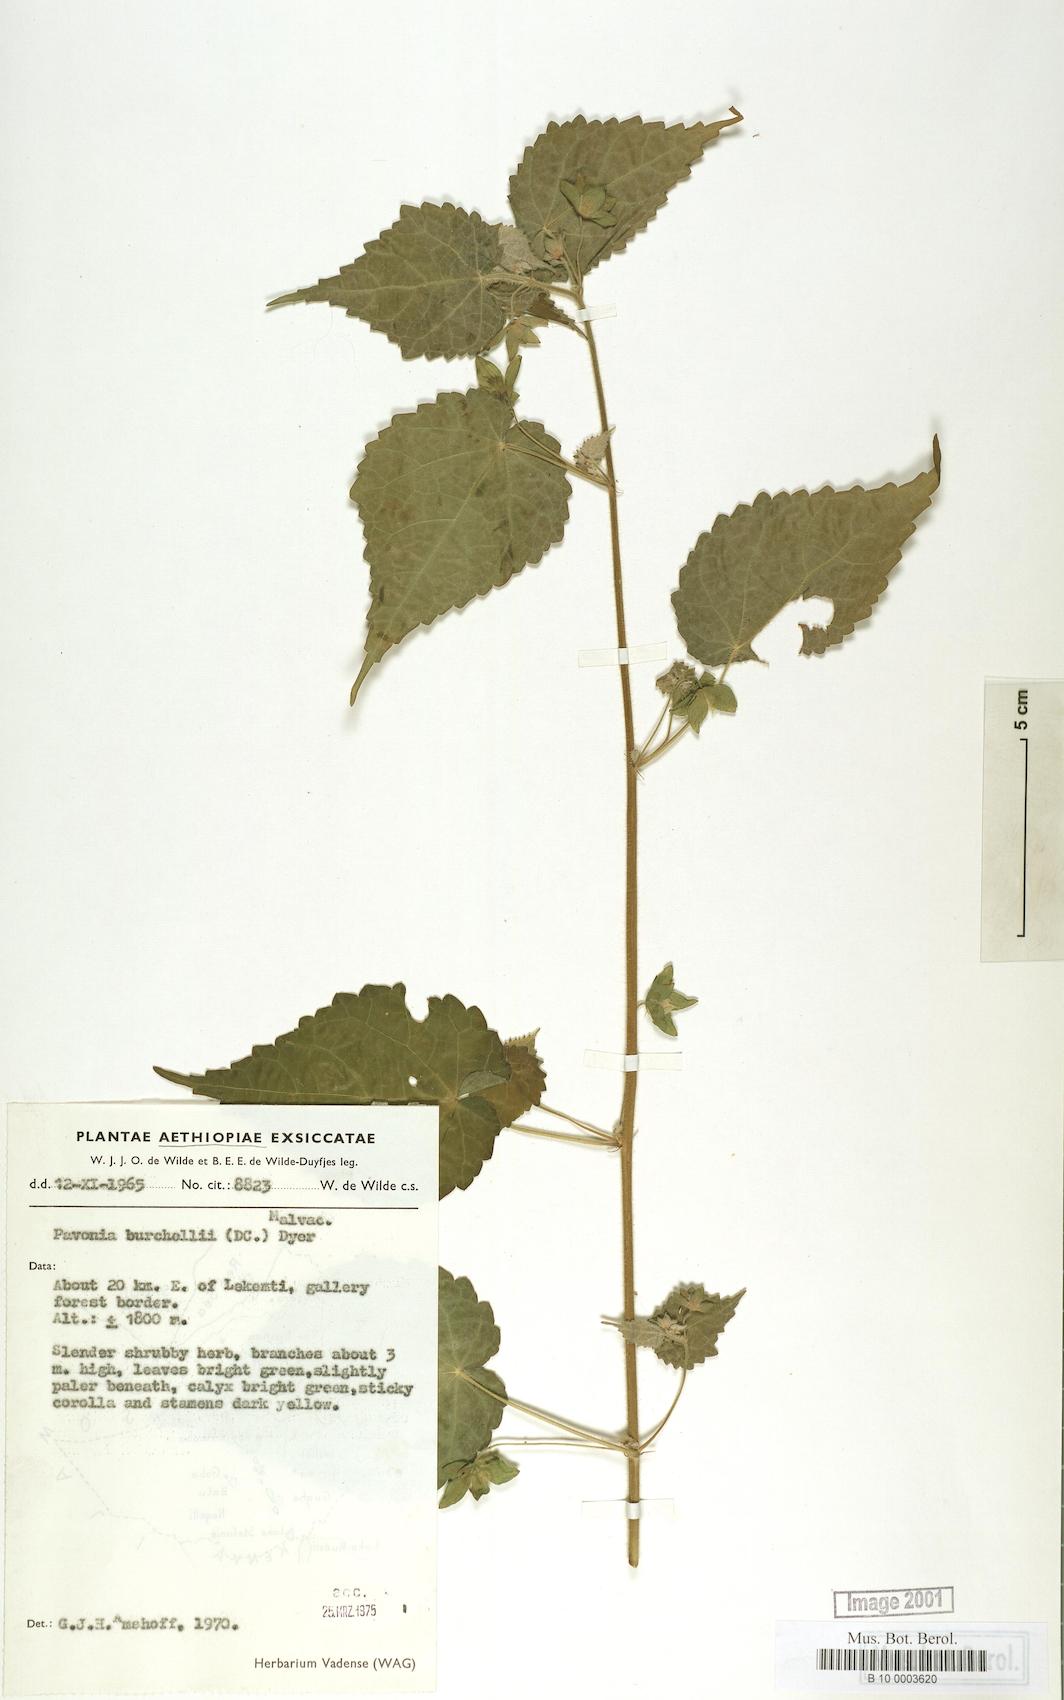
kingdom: Plantae
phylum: Tracheophyta
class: Magnoliopsida
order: Malvales
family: Malvaceae
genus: Pavonia
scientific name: Pavonia burchellii
